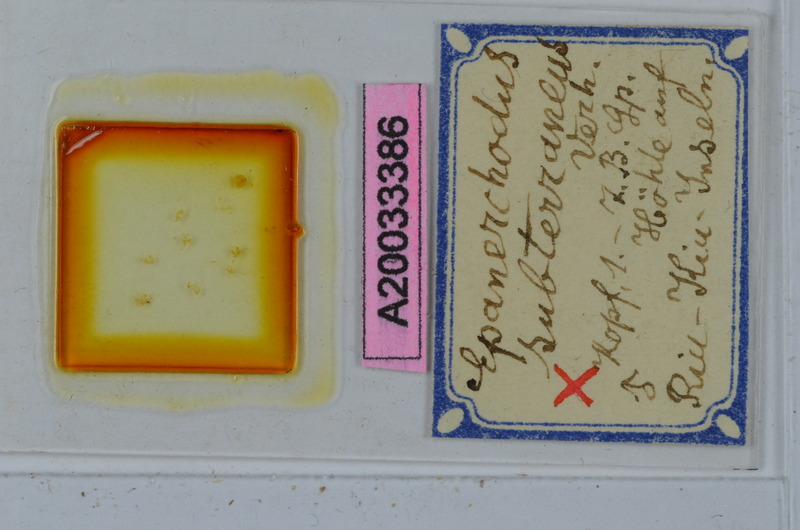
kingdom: Animalia
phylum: Arthropoda
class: Diplopoda
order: Polydesmida
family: Polydesmidae
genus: Riuerchodus
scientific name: Riuerchodus subterraneus
